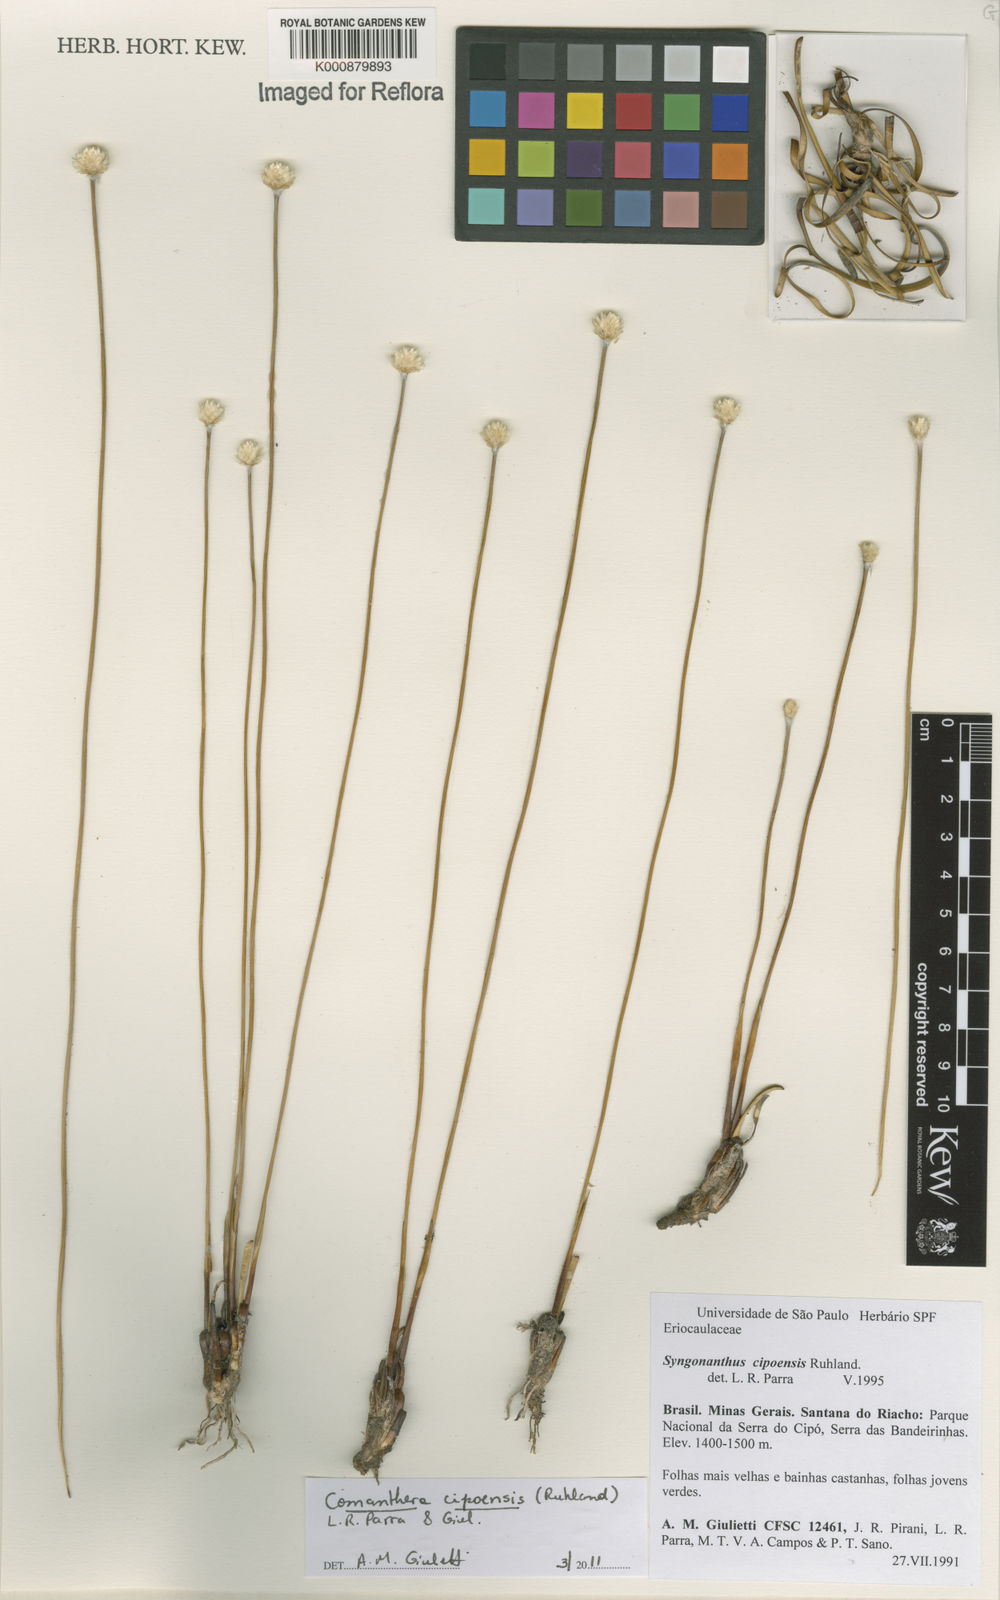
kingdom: Plantae
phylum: Tracheophyta
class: Liliopsida
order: Poales
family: Eriocaulaceae
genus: Comanthera
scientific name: Comanthera cipoensis
